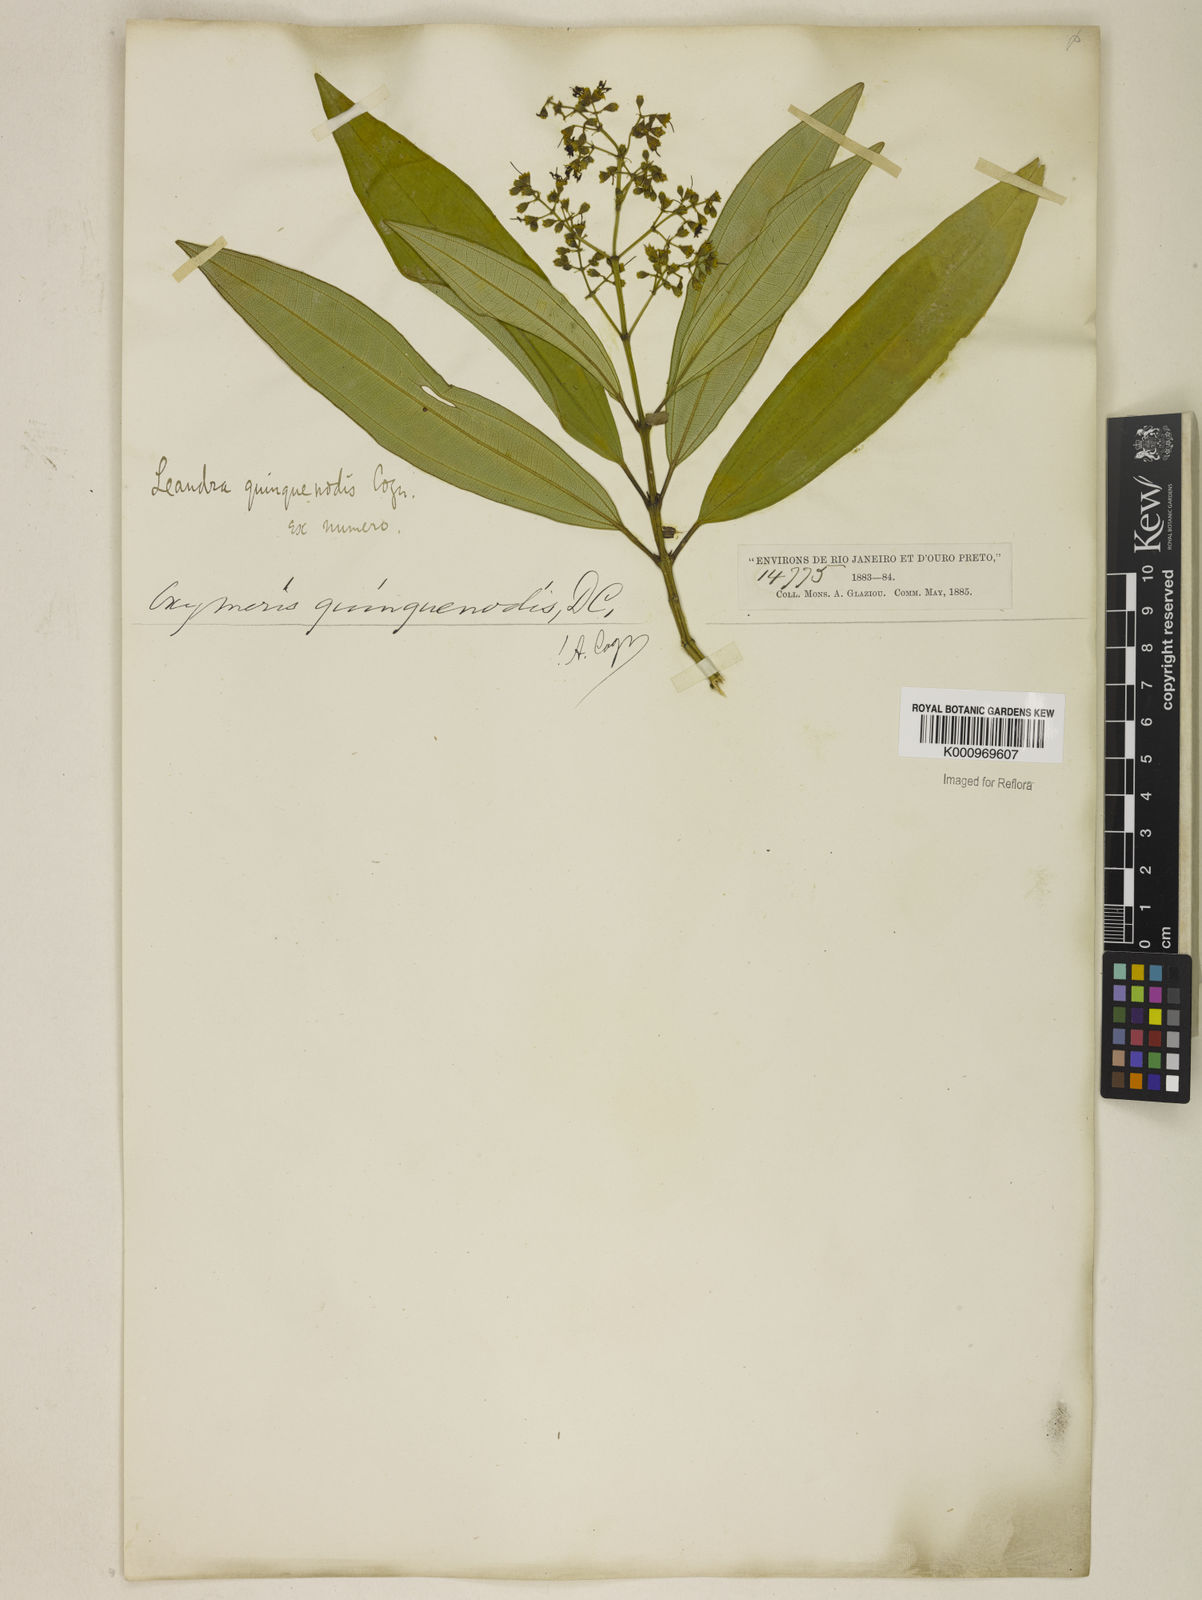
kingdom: Plantae
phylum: Tracheophyta
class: Magnoliopsida
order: Myrtales
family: Melastomataceae
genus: Miconia
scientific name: Miconia quinquenodis
